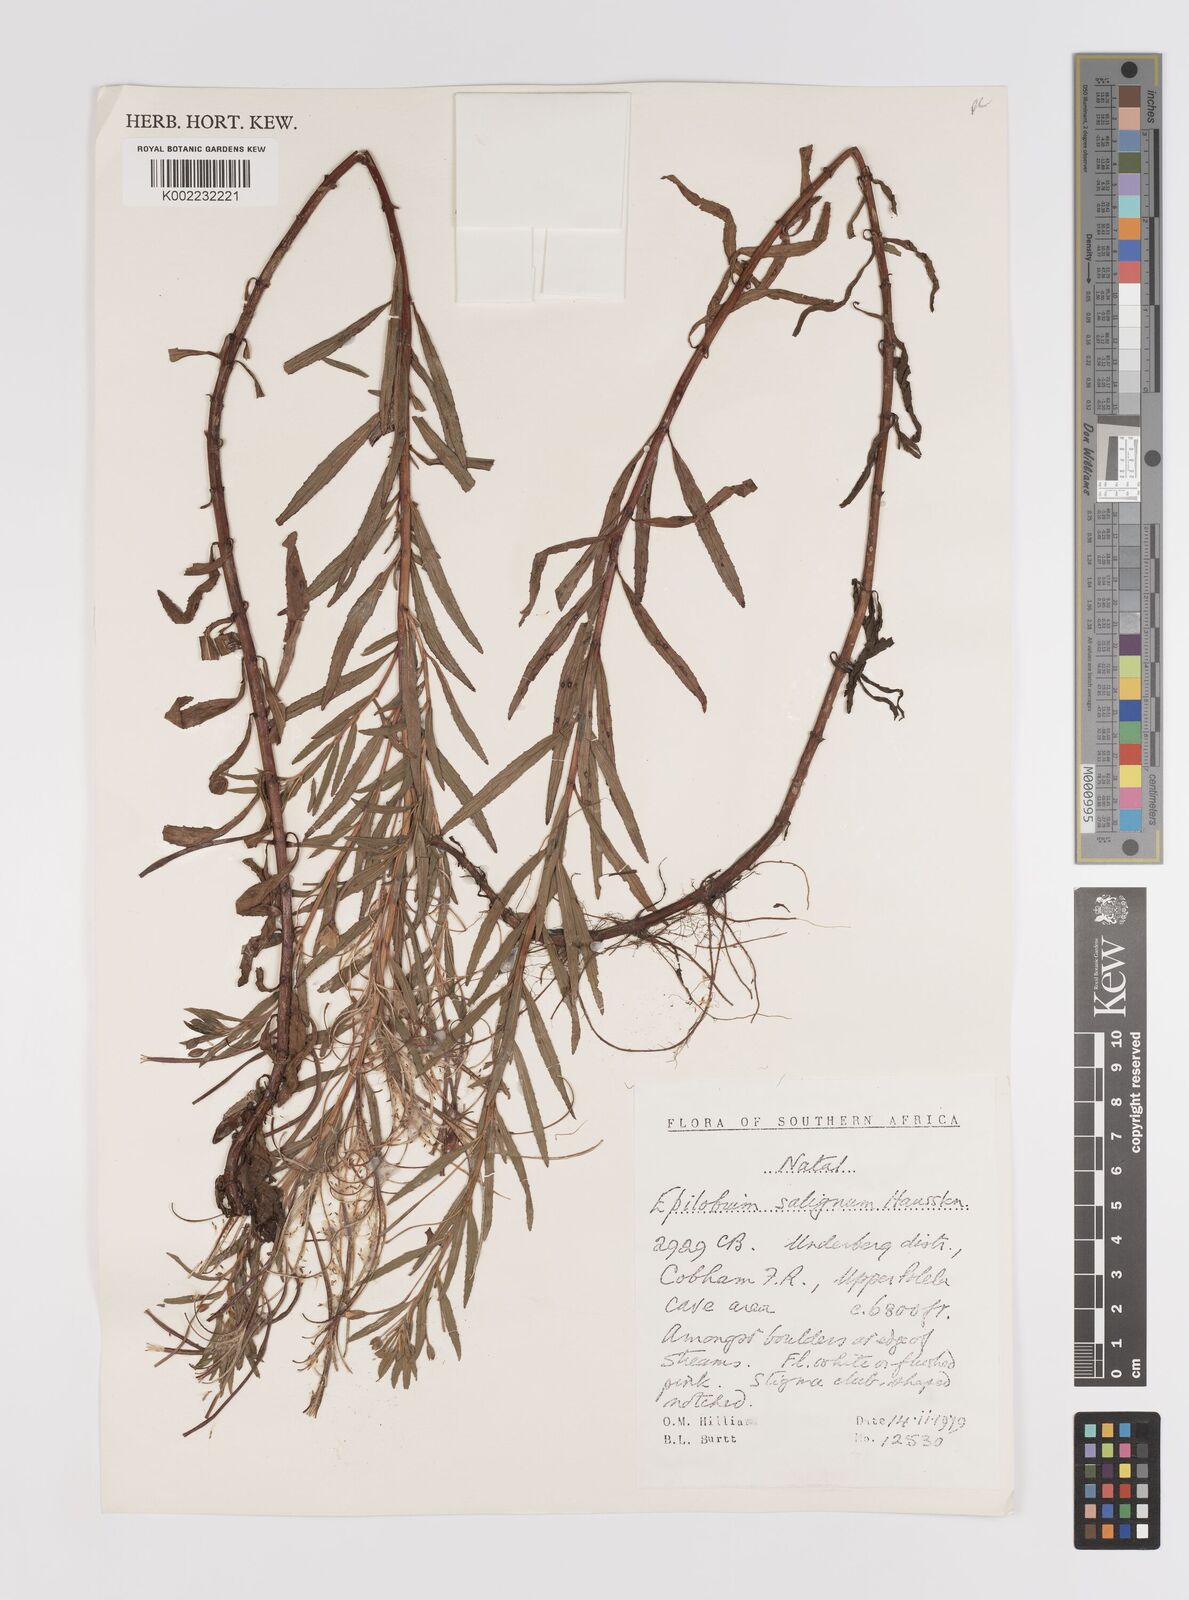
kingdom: Plantae
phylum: Tracheophyta
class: Magnoliopsida
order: Myrtales
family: Onagraceae
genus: Epilobium
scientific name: Epilobium salignum
